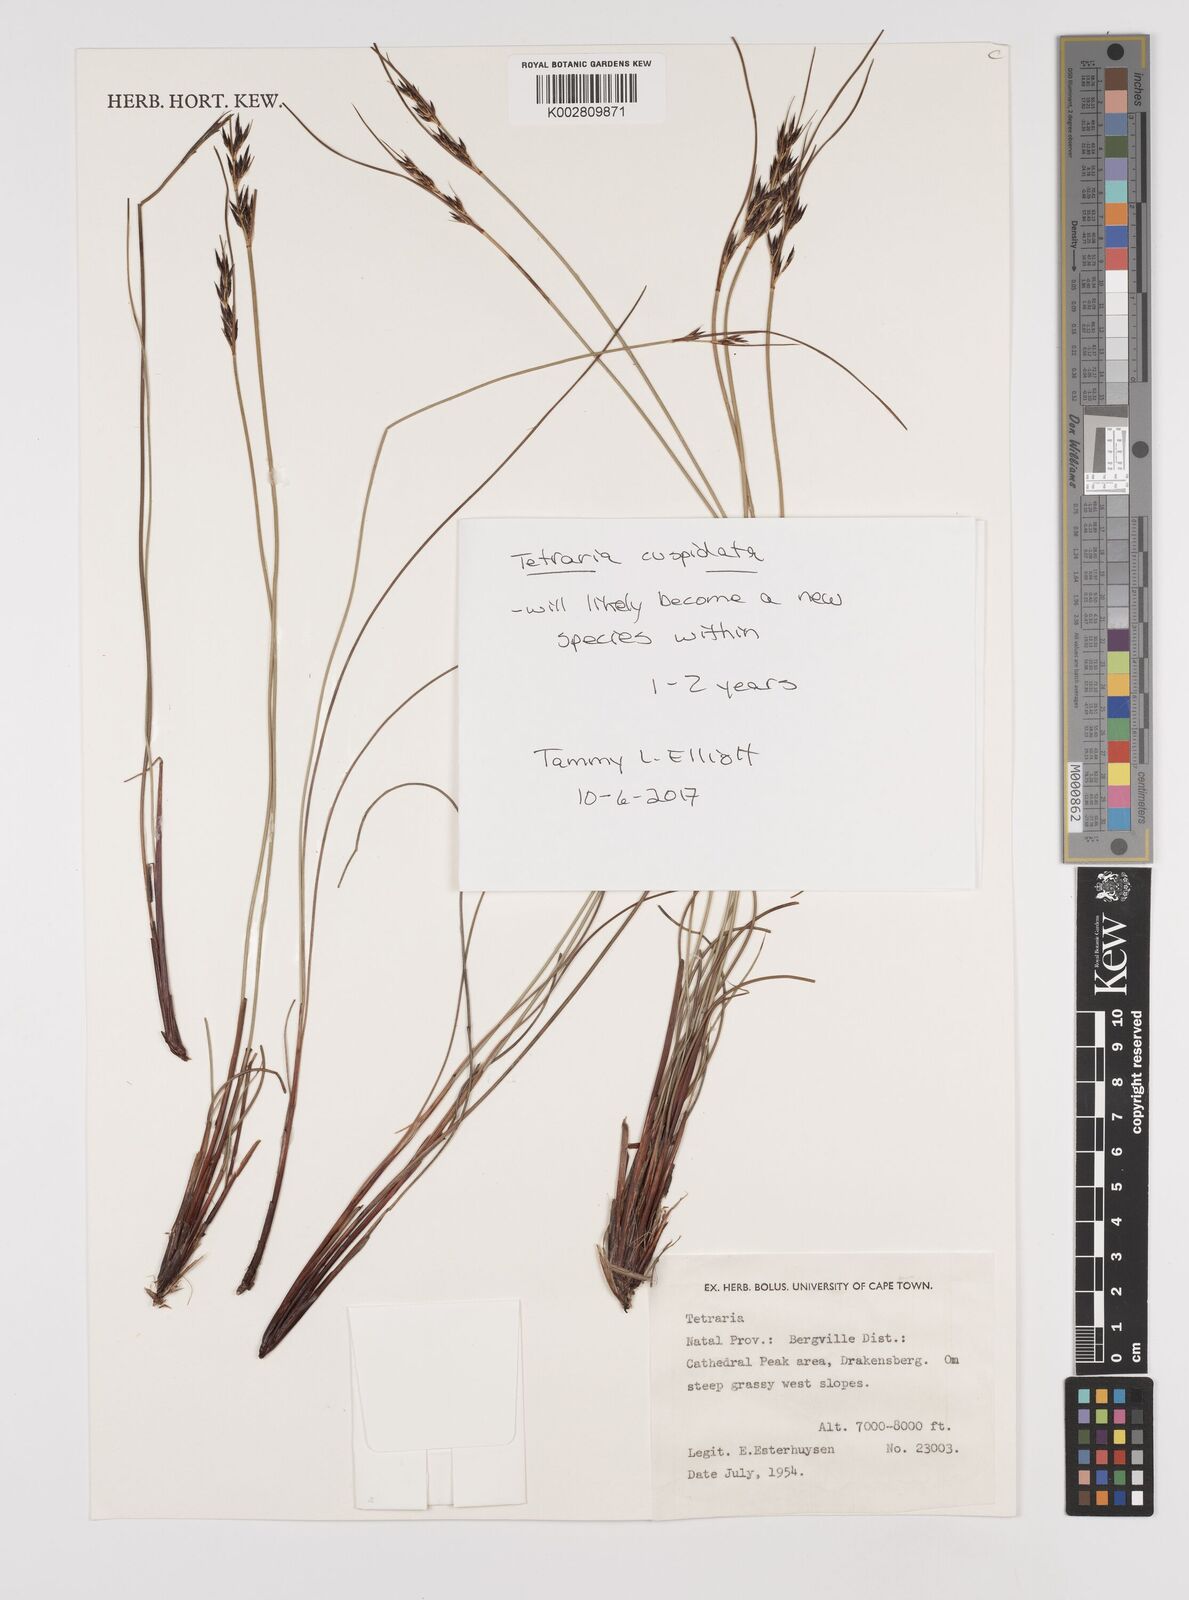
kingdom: Plantae
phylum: Tracheophyta
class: Liliopsida
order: Poales
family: Cyperaceae
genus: Schoenus
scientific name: Schoenus
